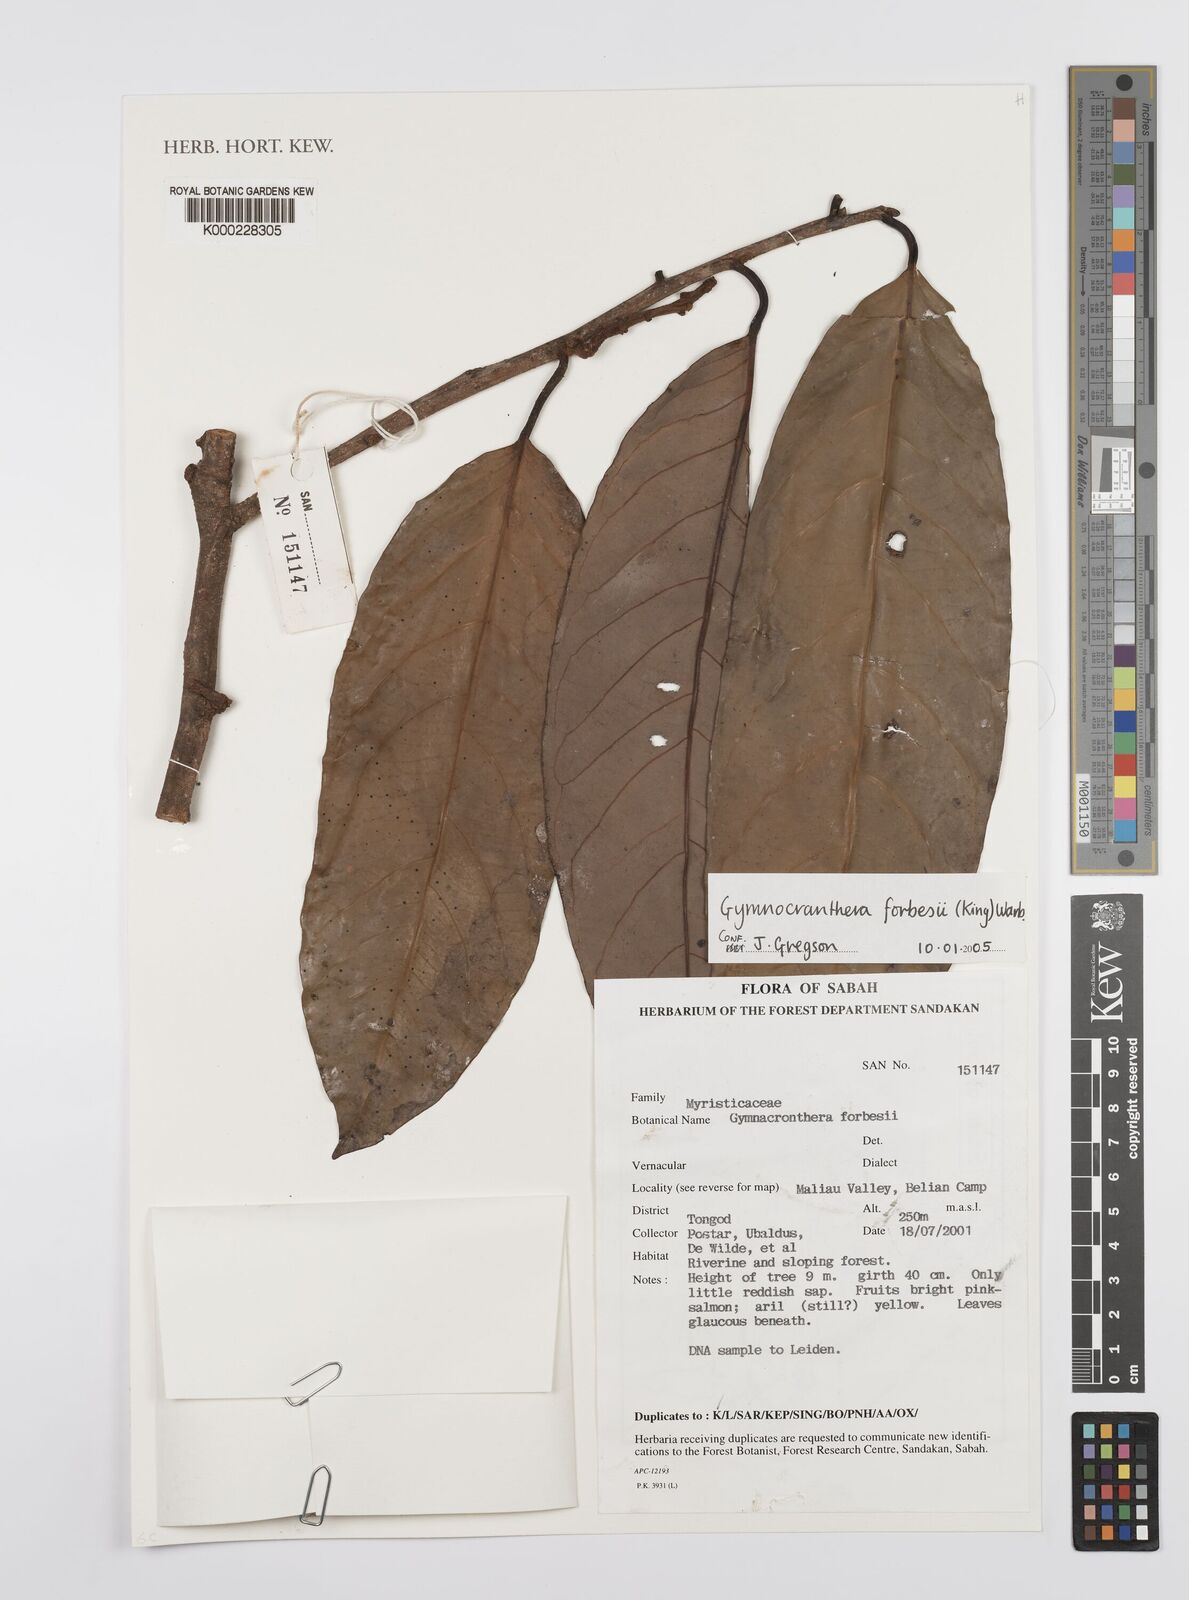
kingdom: Plantae
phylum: Tracheophyta
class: Magnoliopsida
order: Magnoliales
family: Myristicaceae
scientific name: Myristicaceae
